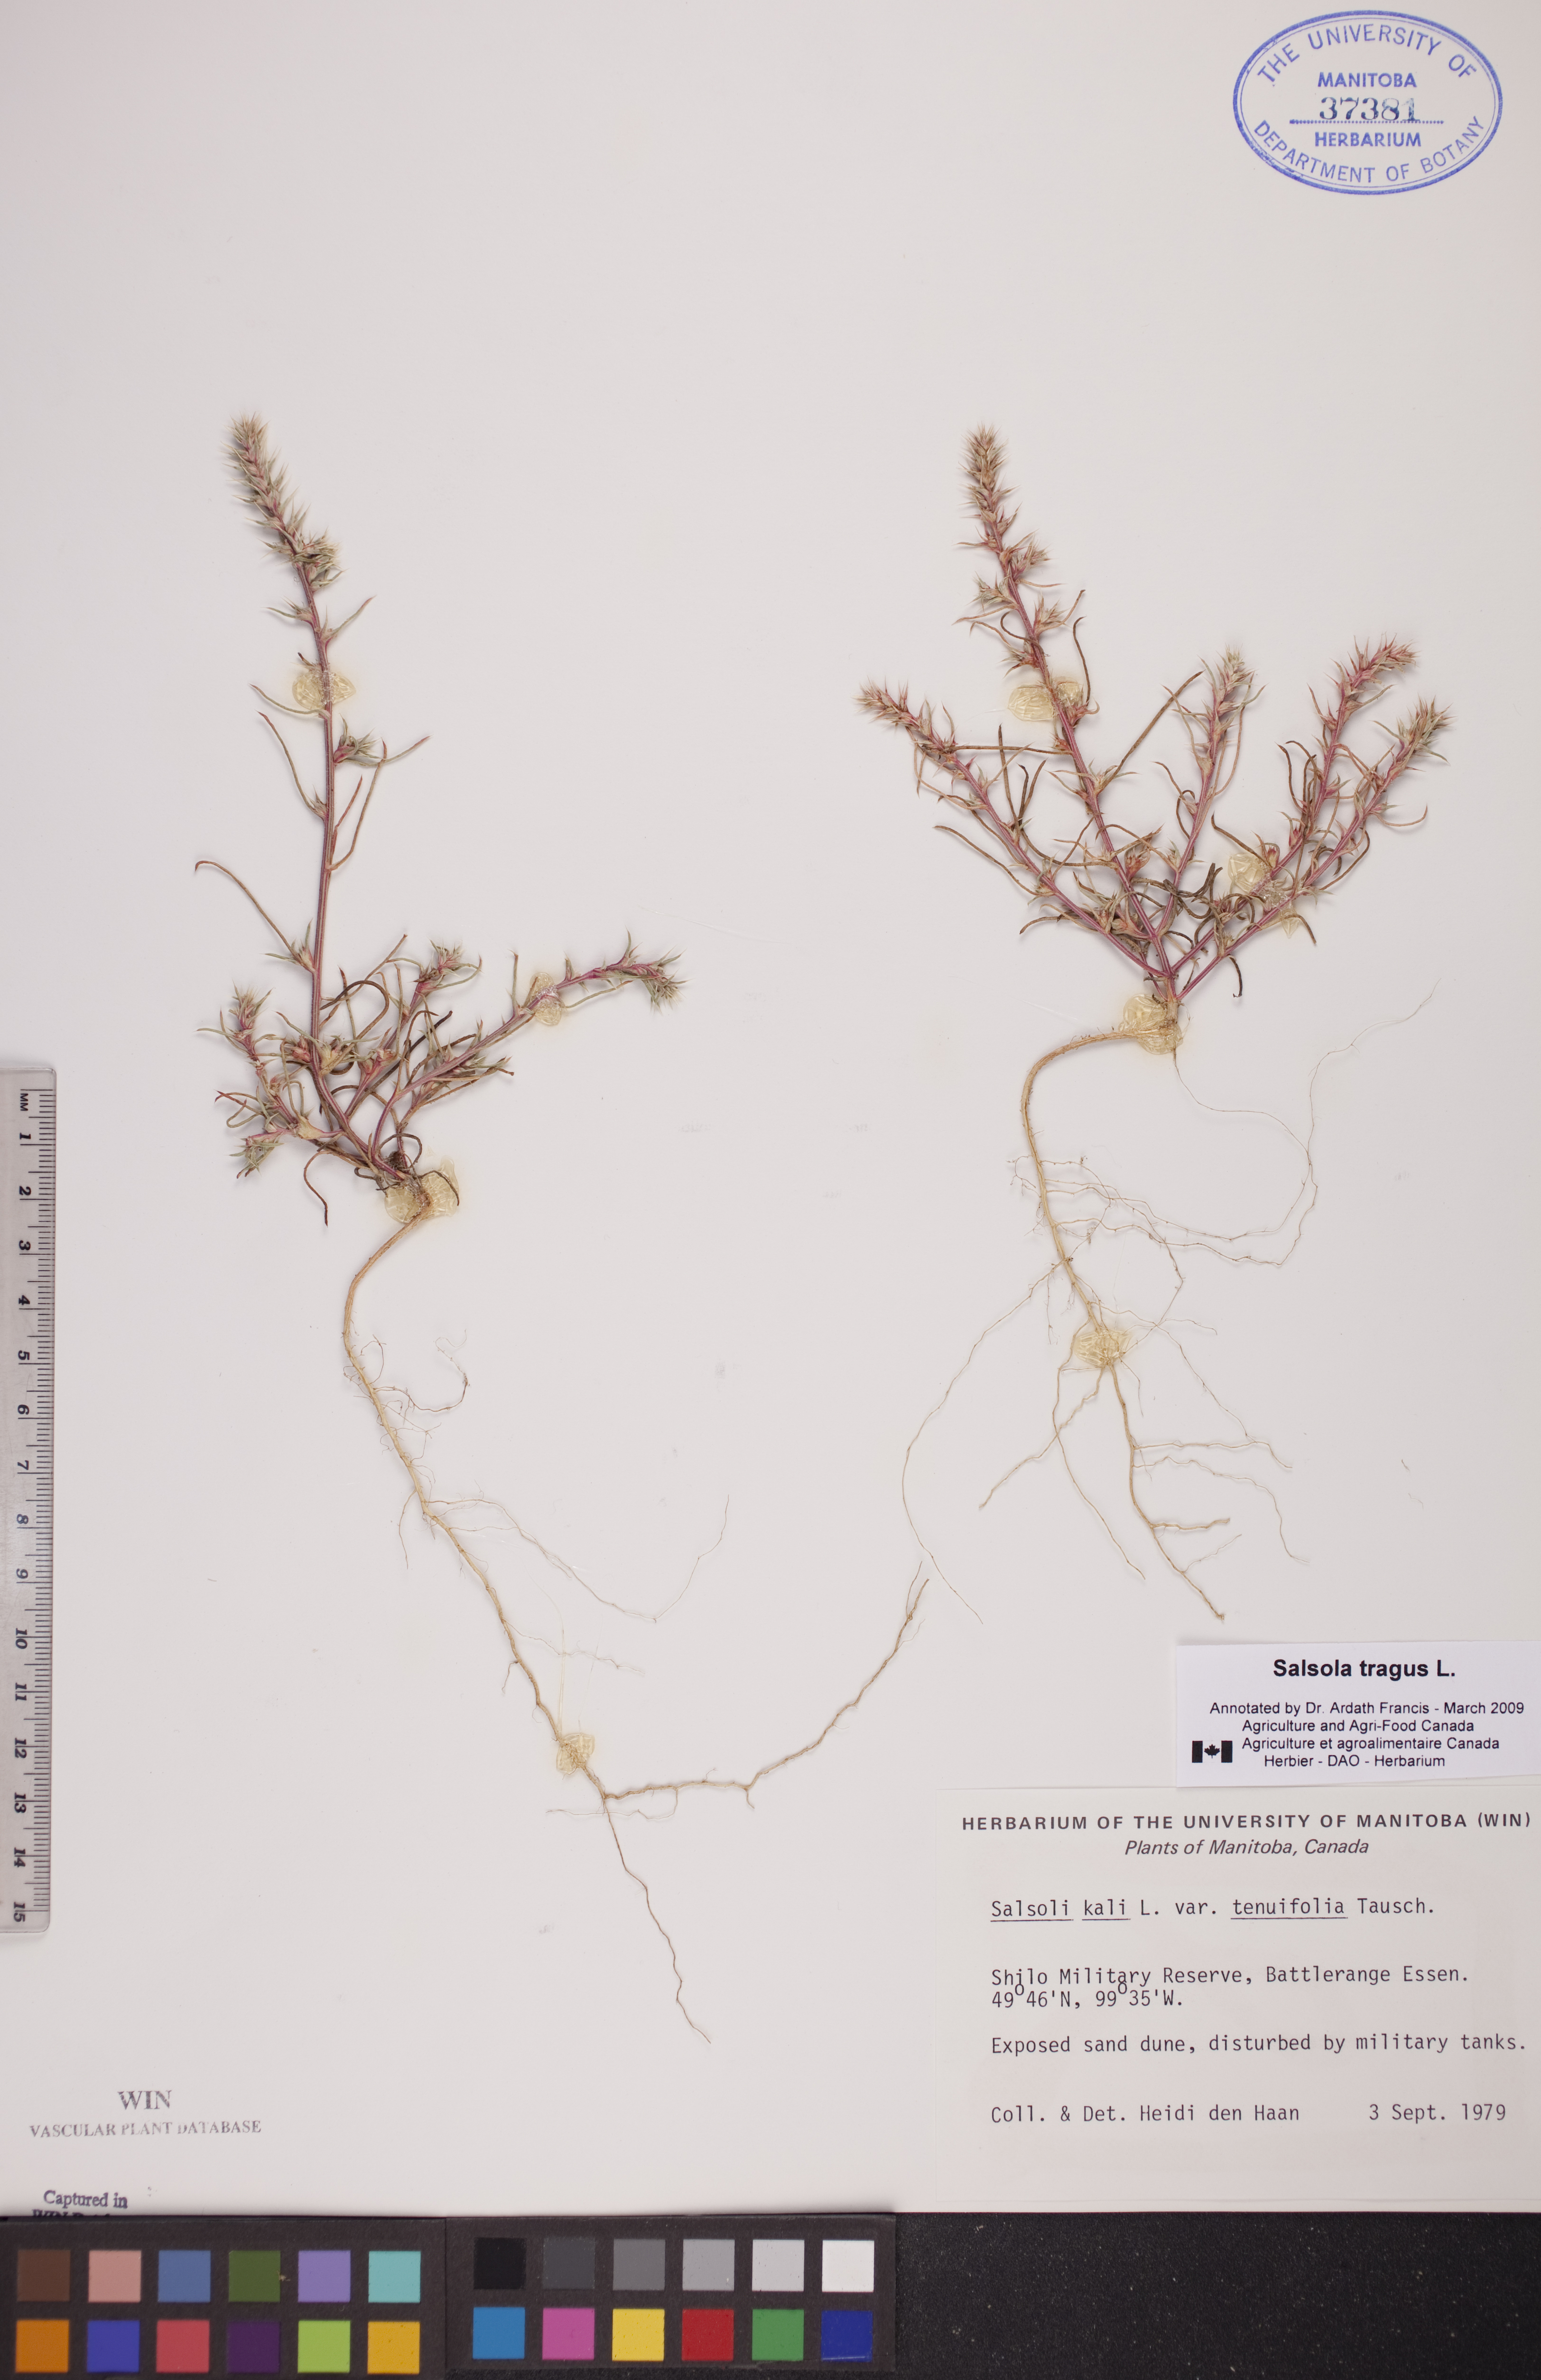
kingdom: Plantae
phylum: Tracheophyta
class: Magnoliopsida
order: Caryophyllales
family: Amaranthaceae
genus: Salsola
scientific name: Salsola tragus
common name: Prickly russian thistle
